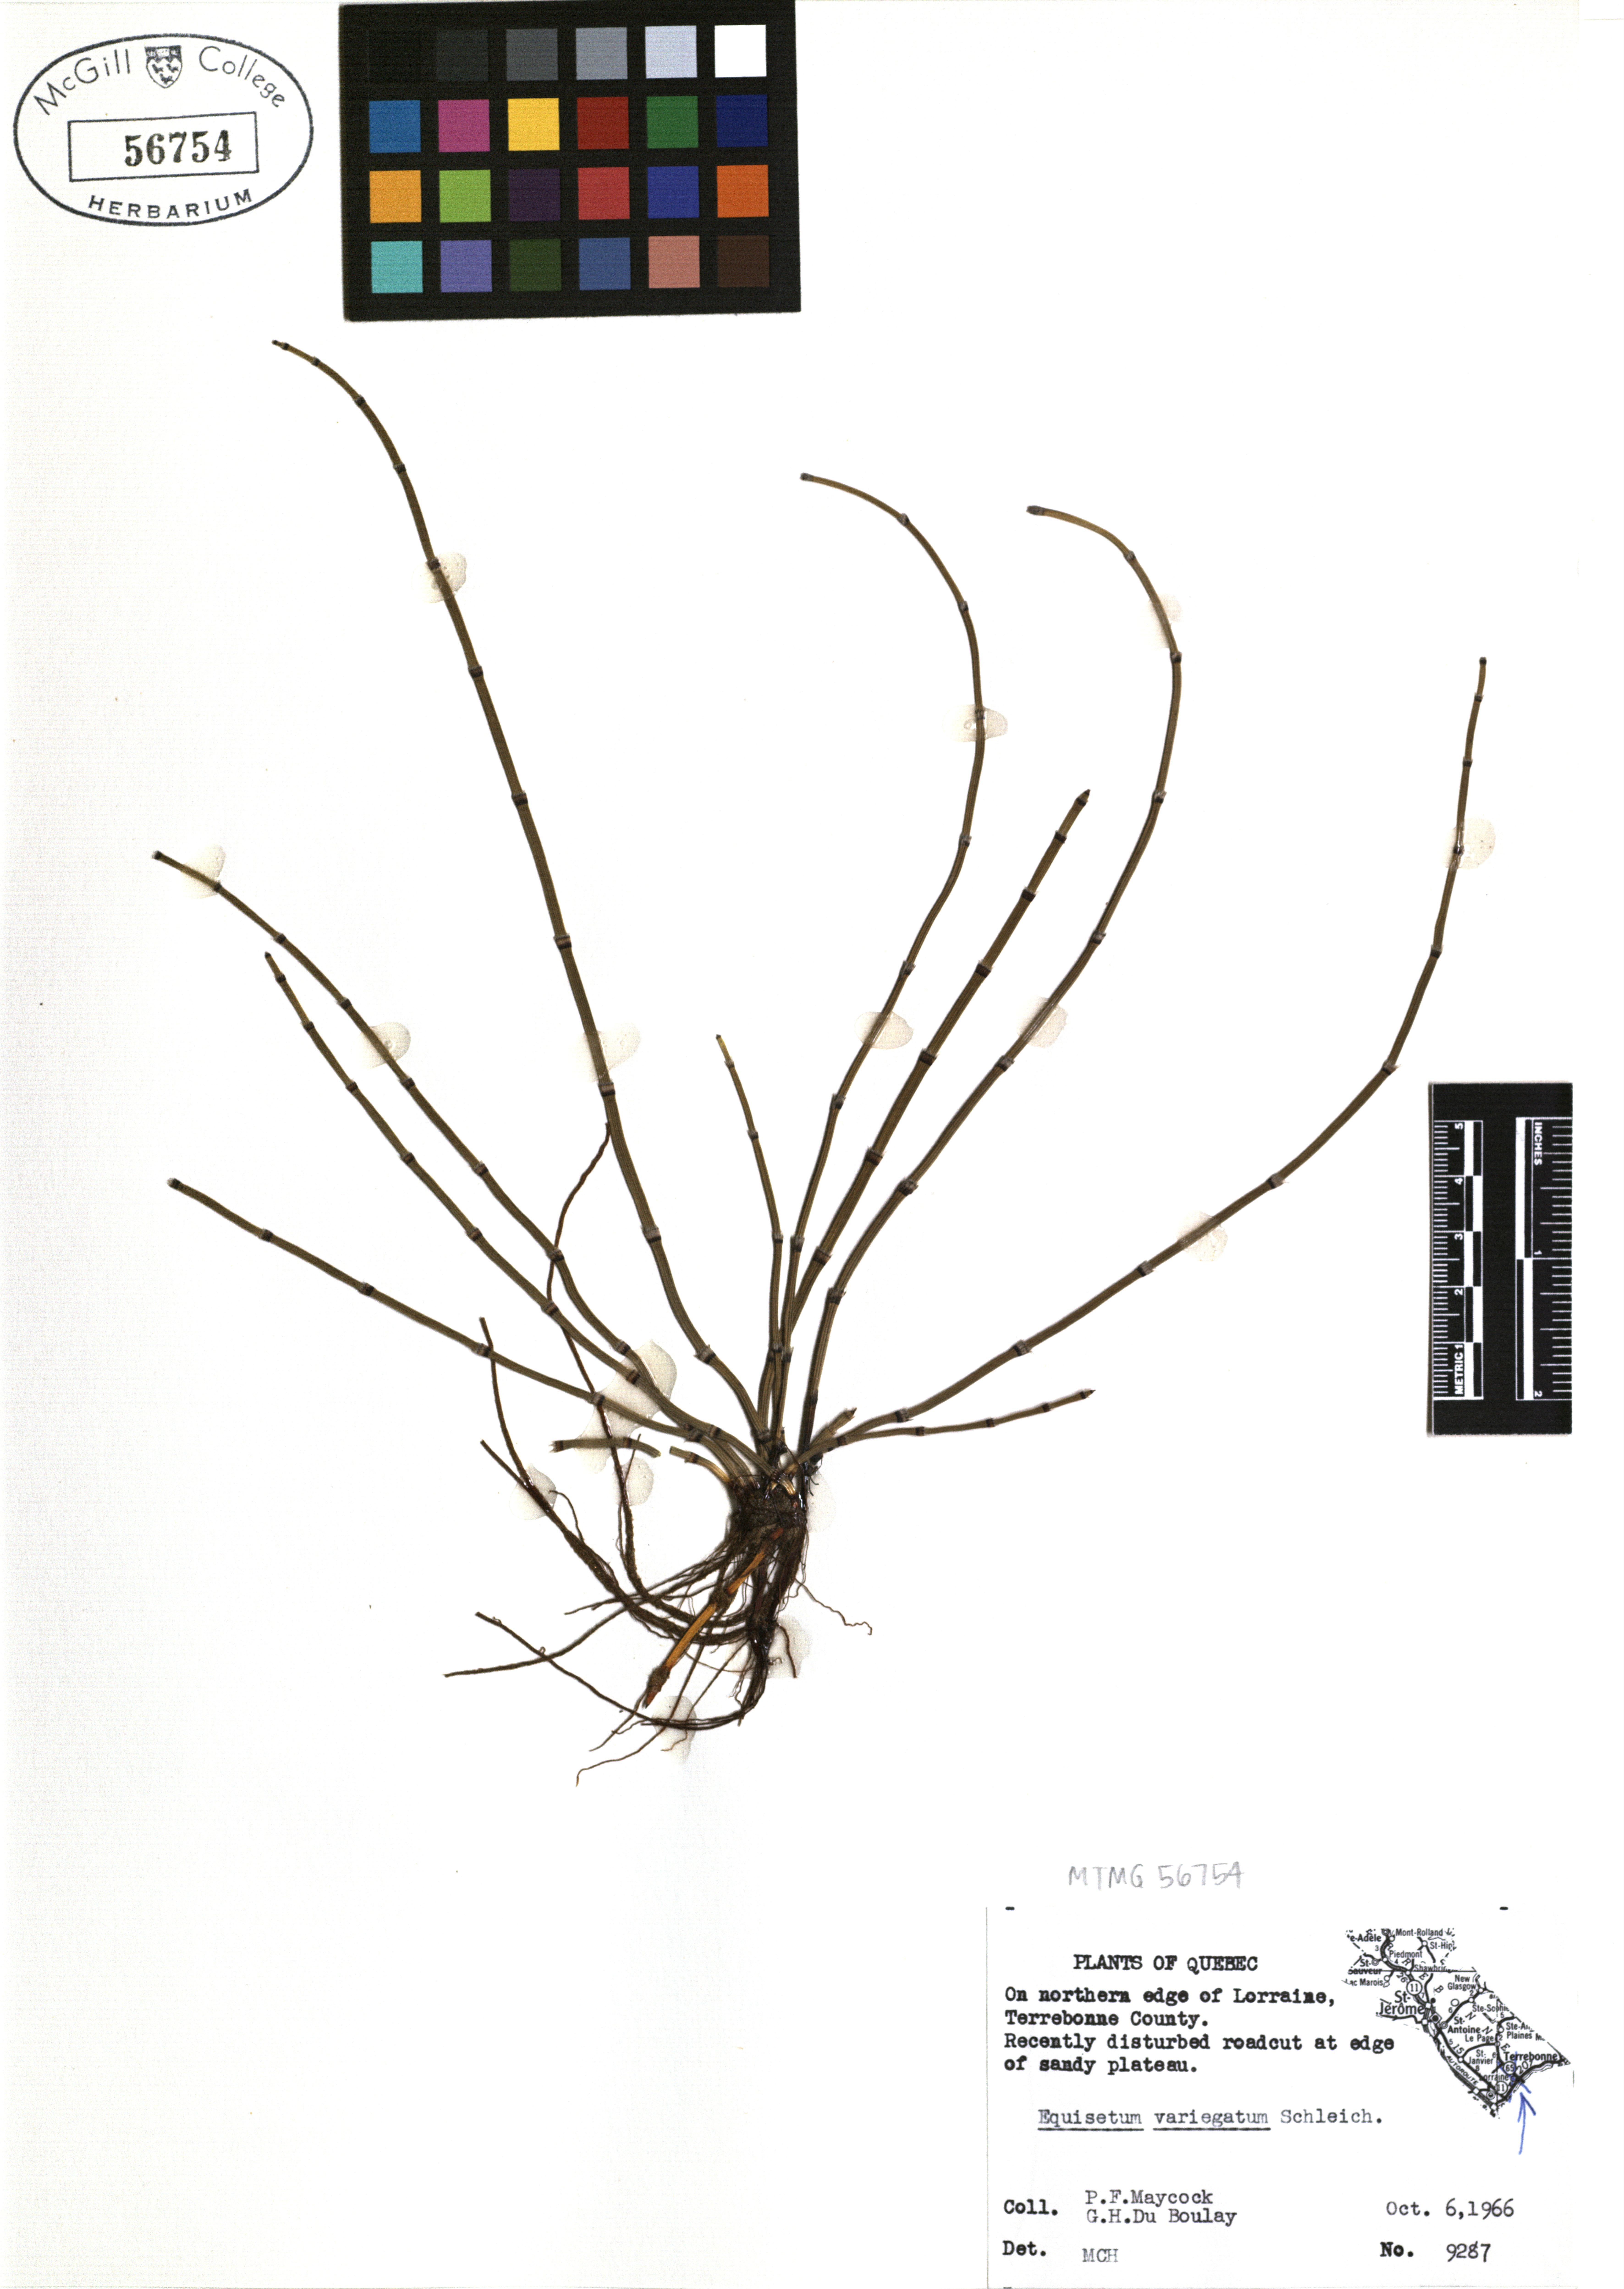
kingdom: Plantae
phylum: Tracheophyta
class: Polypodiopsida
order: Equisetales
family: Equisetaceae
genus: Equisetum
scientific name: Equisetum variegatum
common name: Variegated horsetail
